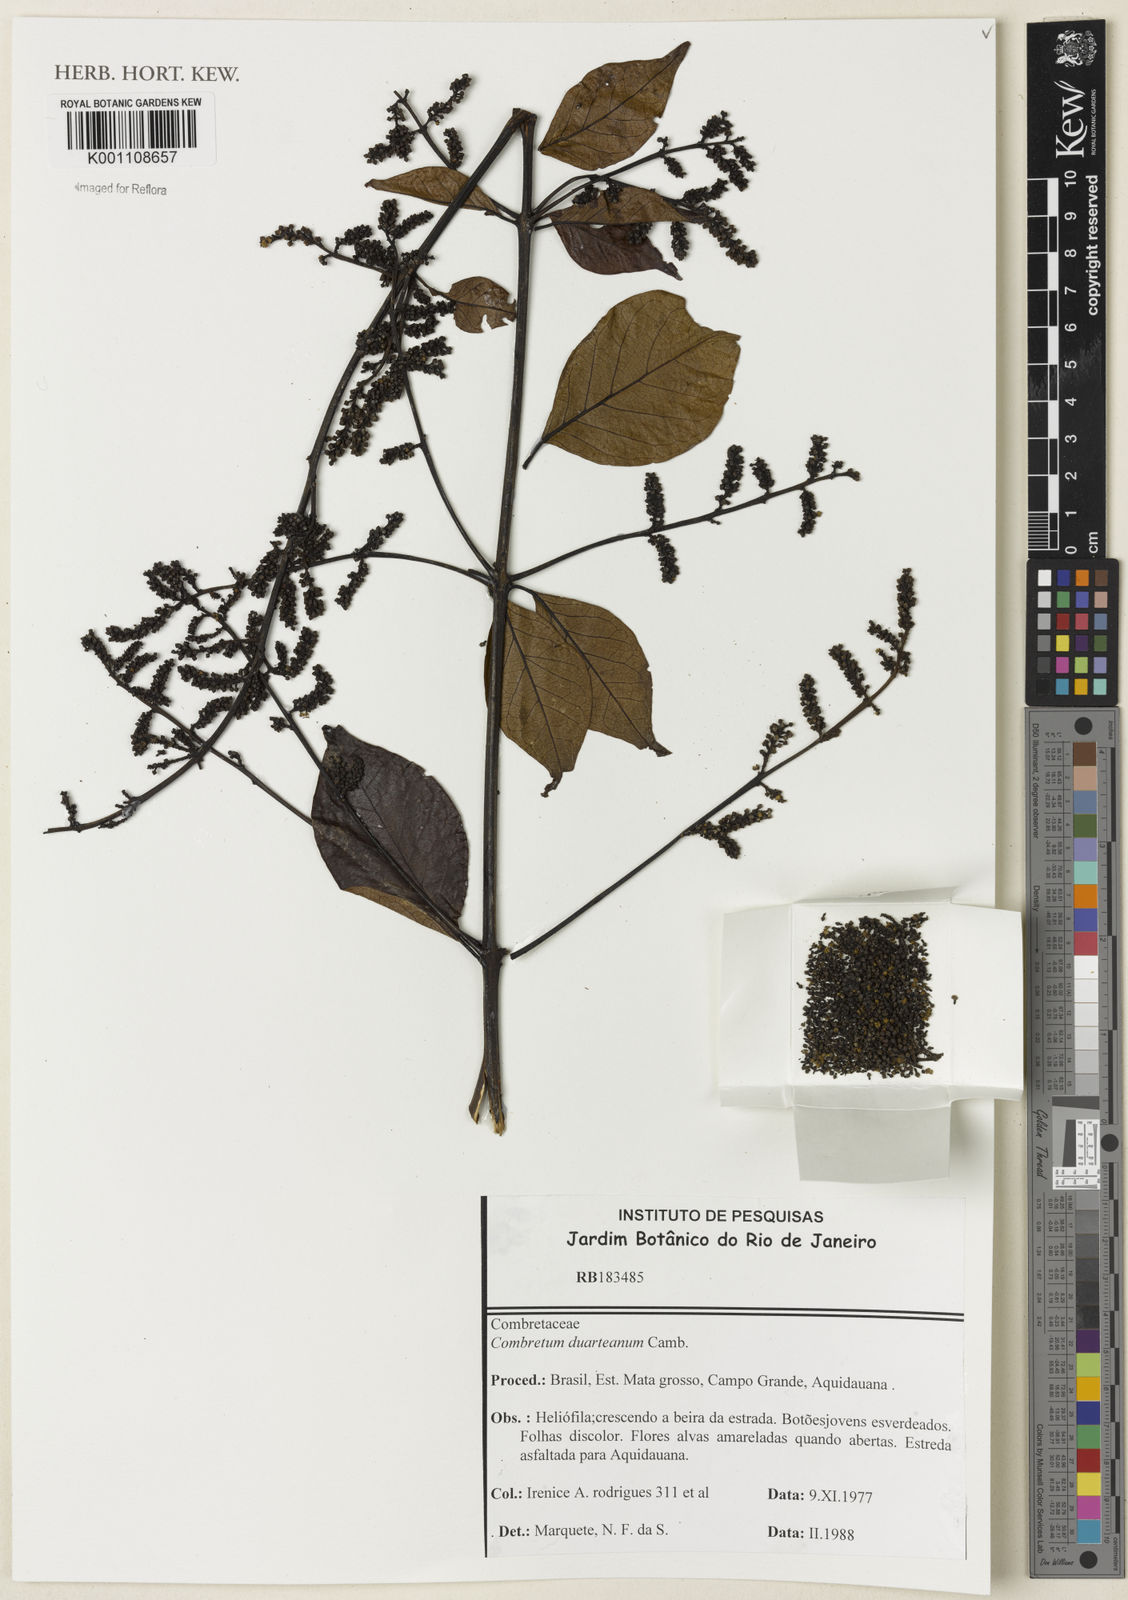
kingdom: Plantae
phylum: Tracheophyta
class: Magnoliopsida
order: Myrtales
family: Combretaceae
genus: Combretum
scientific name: Combretum duarteanum
